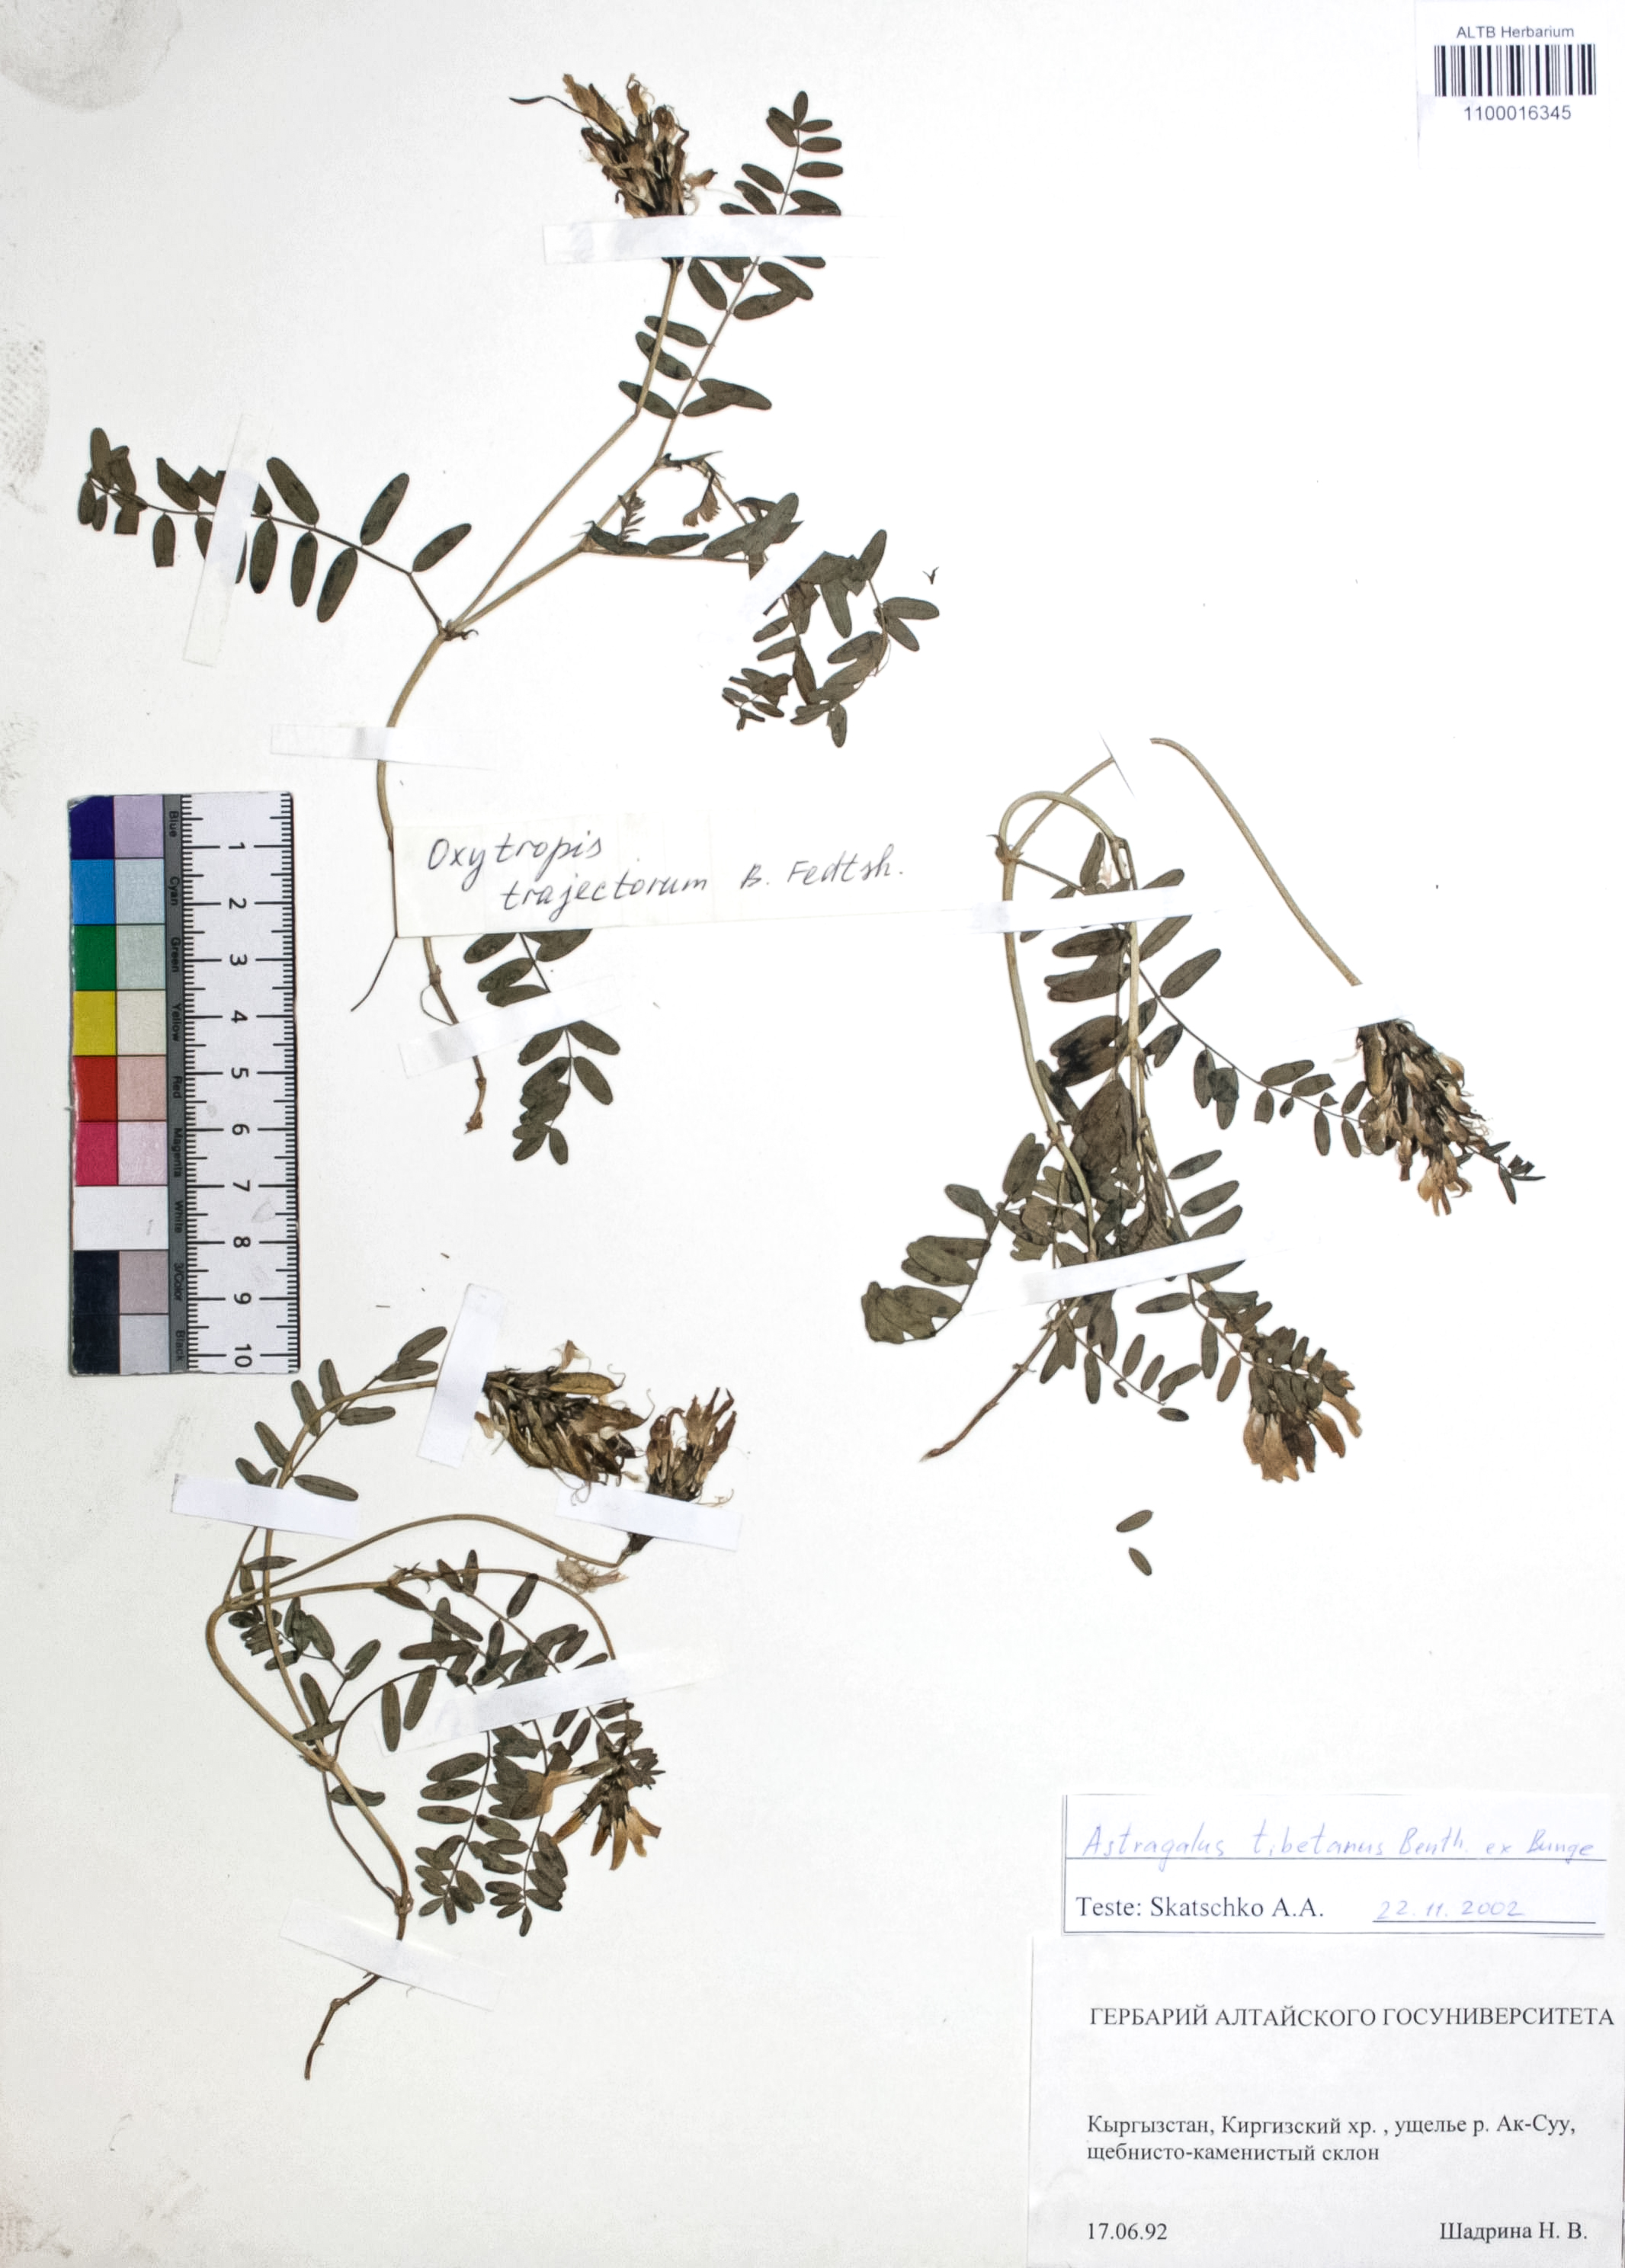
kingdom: Plantae
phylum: Tracheophyta
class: Magnoliopsida
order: Fabales
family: Fabaceae
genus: Astragalus
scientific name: Astragalus tibetanus
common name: Tibet milkvetch
